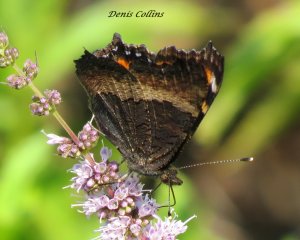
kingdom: Animalia
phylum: Arthropoda
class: Insecta
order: Lepidoptera
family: Nymphalidae
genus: Aglais
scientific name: Aglais milberti
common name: Milbert's Tortoiseshell
